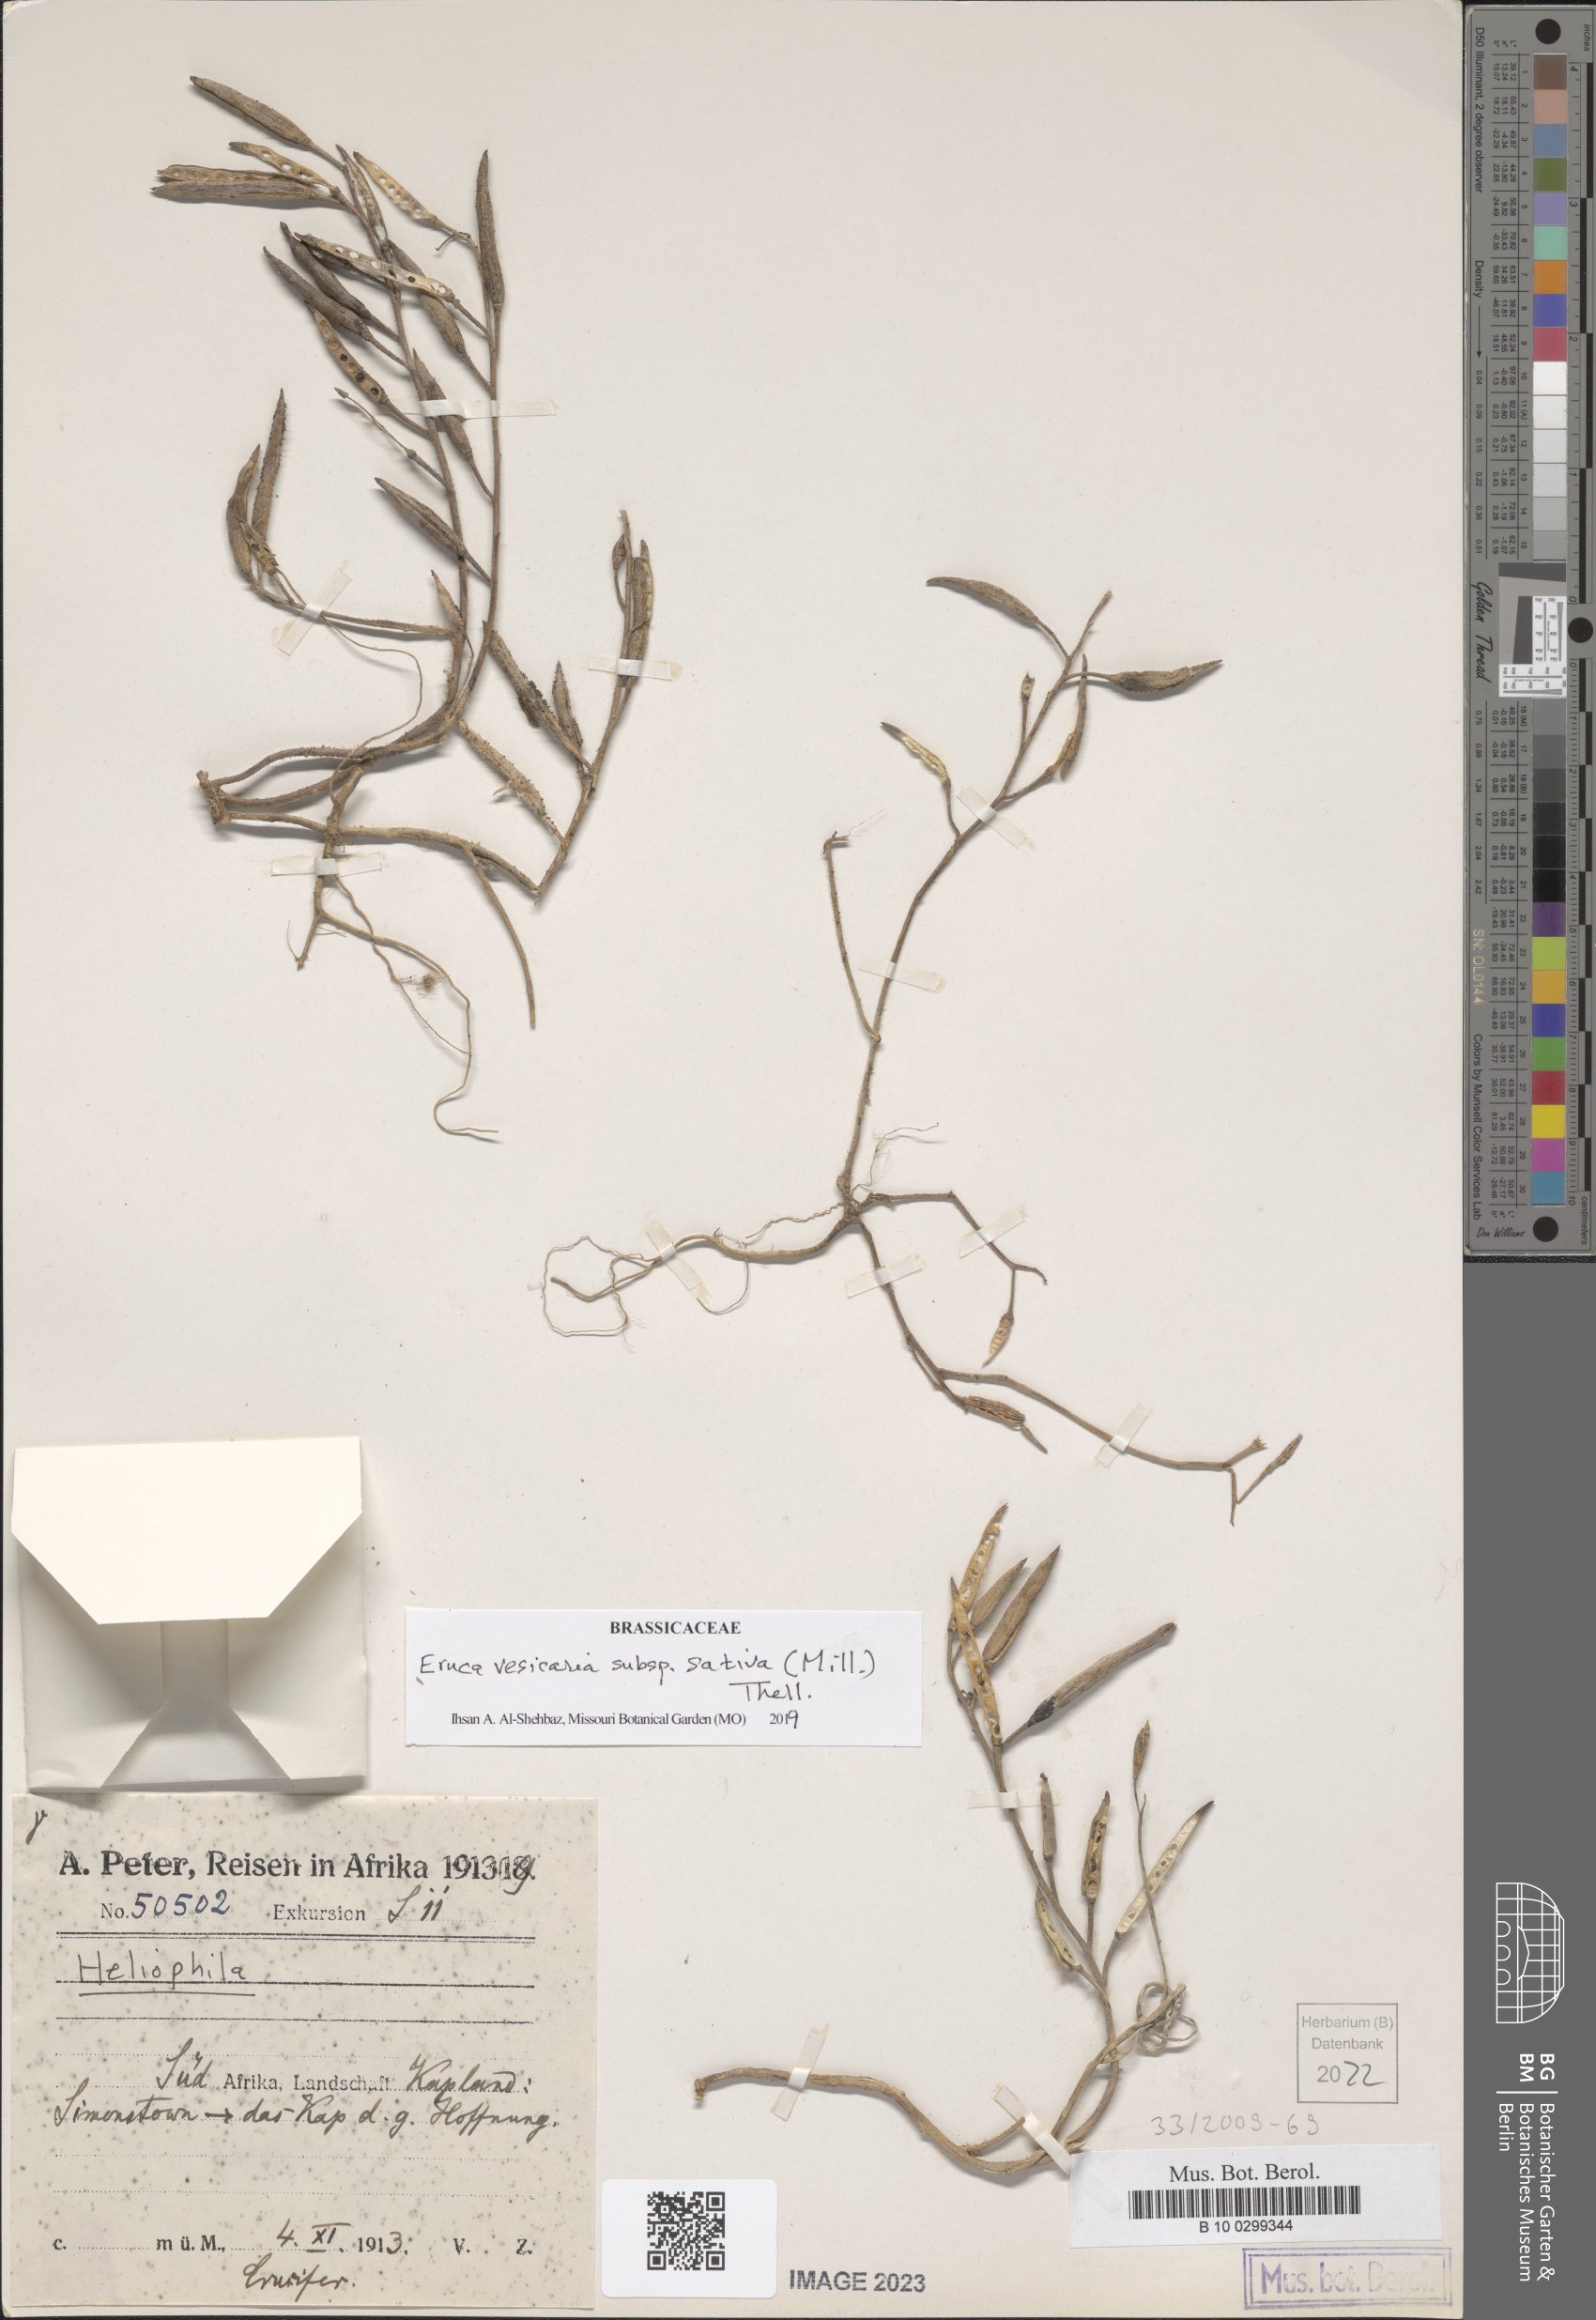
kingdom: Plantae
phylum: Tracheophyta
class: Magnoliopsida
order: Brassicales
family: Brassicaceae
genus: Eruca
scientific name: Eruca vesicaria
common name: Garden rocket
